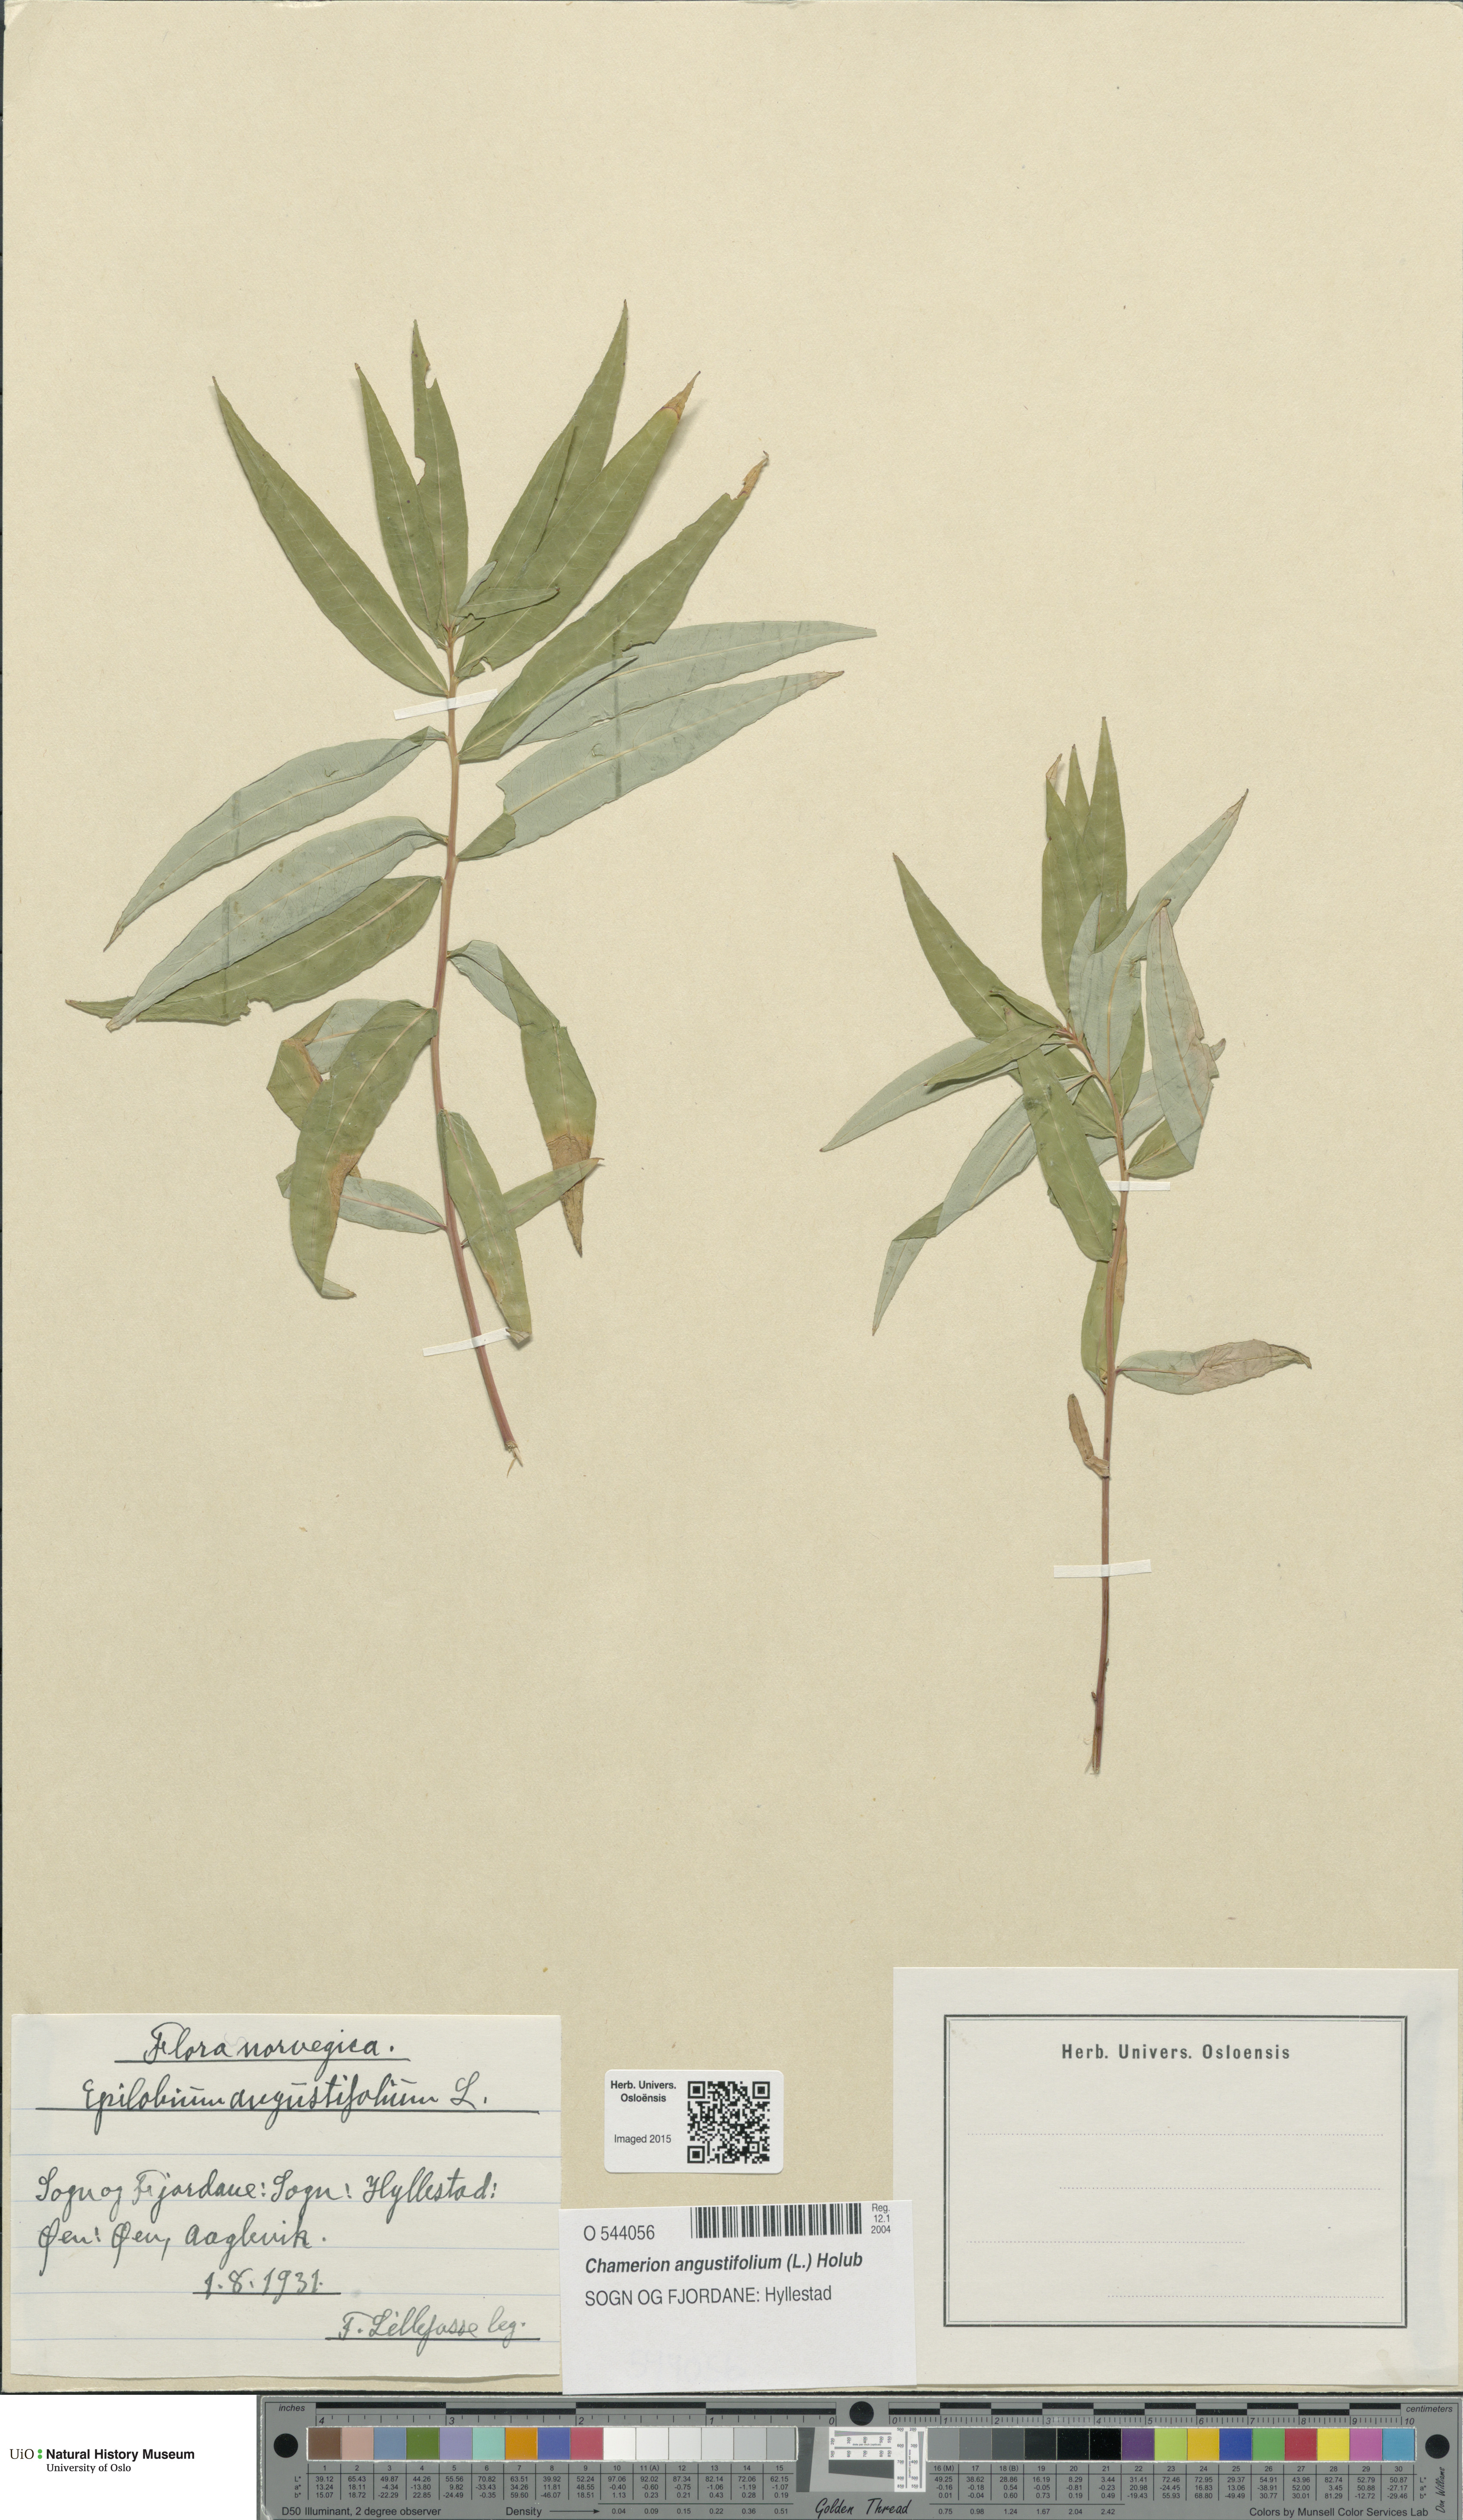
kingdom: Plantae
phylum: Tracheophyta
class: Magnoliopsida
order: Myrtales
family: Onagraceae
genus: Chamaenerion
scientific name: Chamaenerion angustifolium
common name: Fireweed
